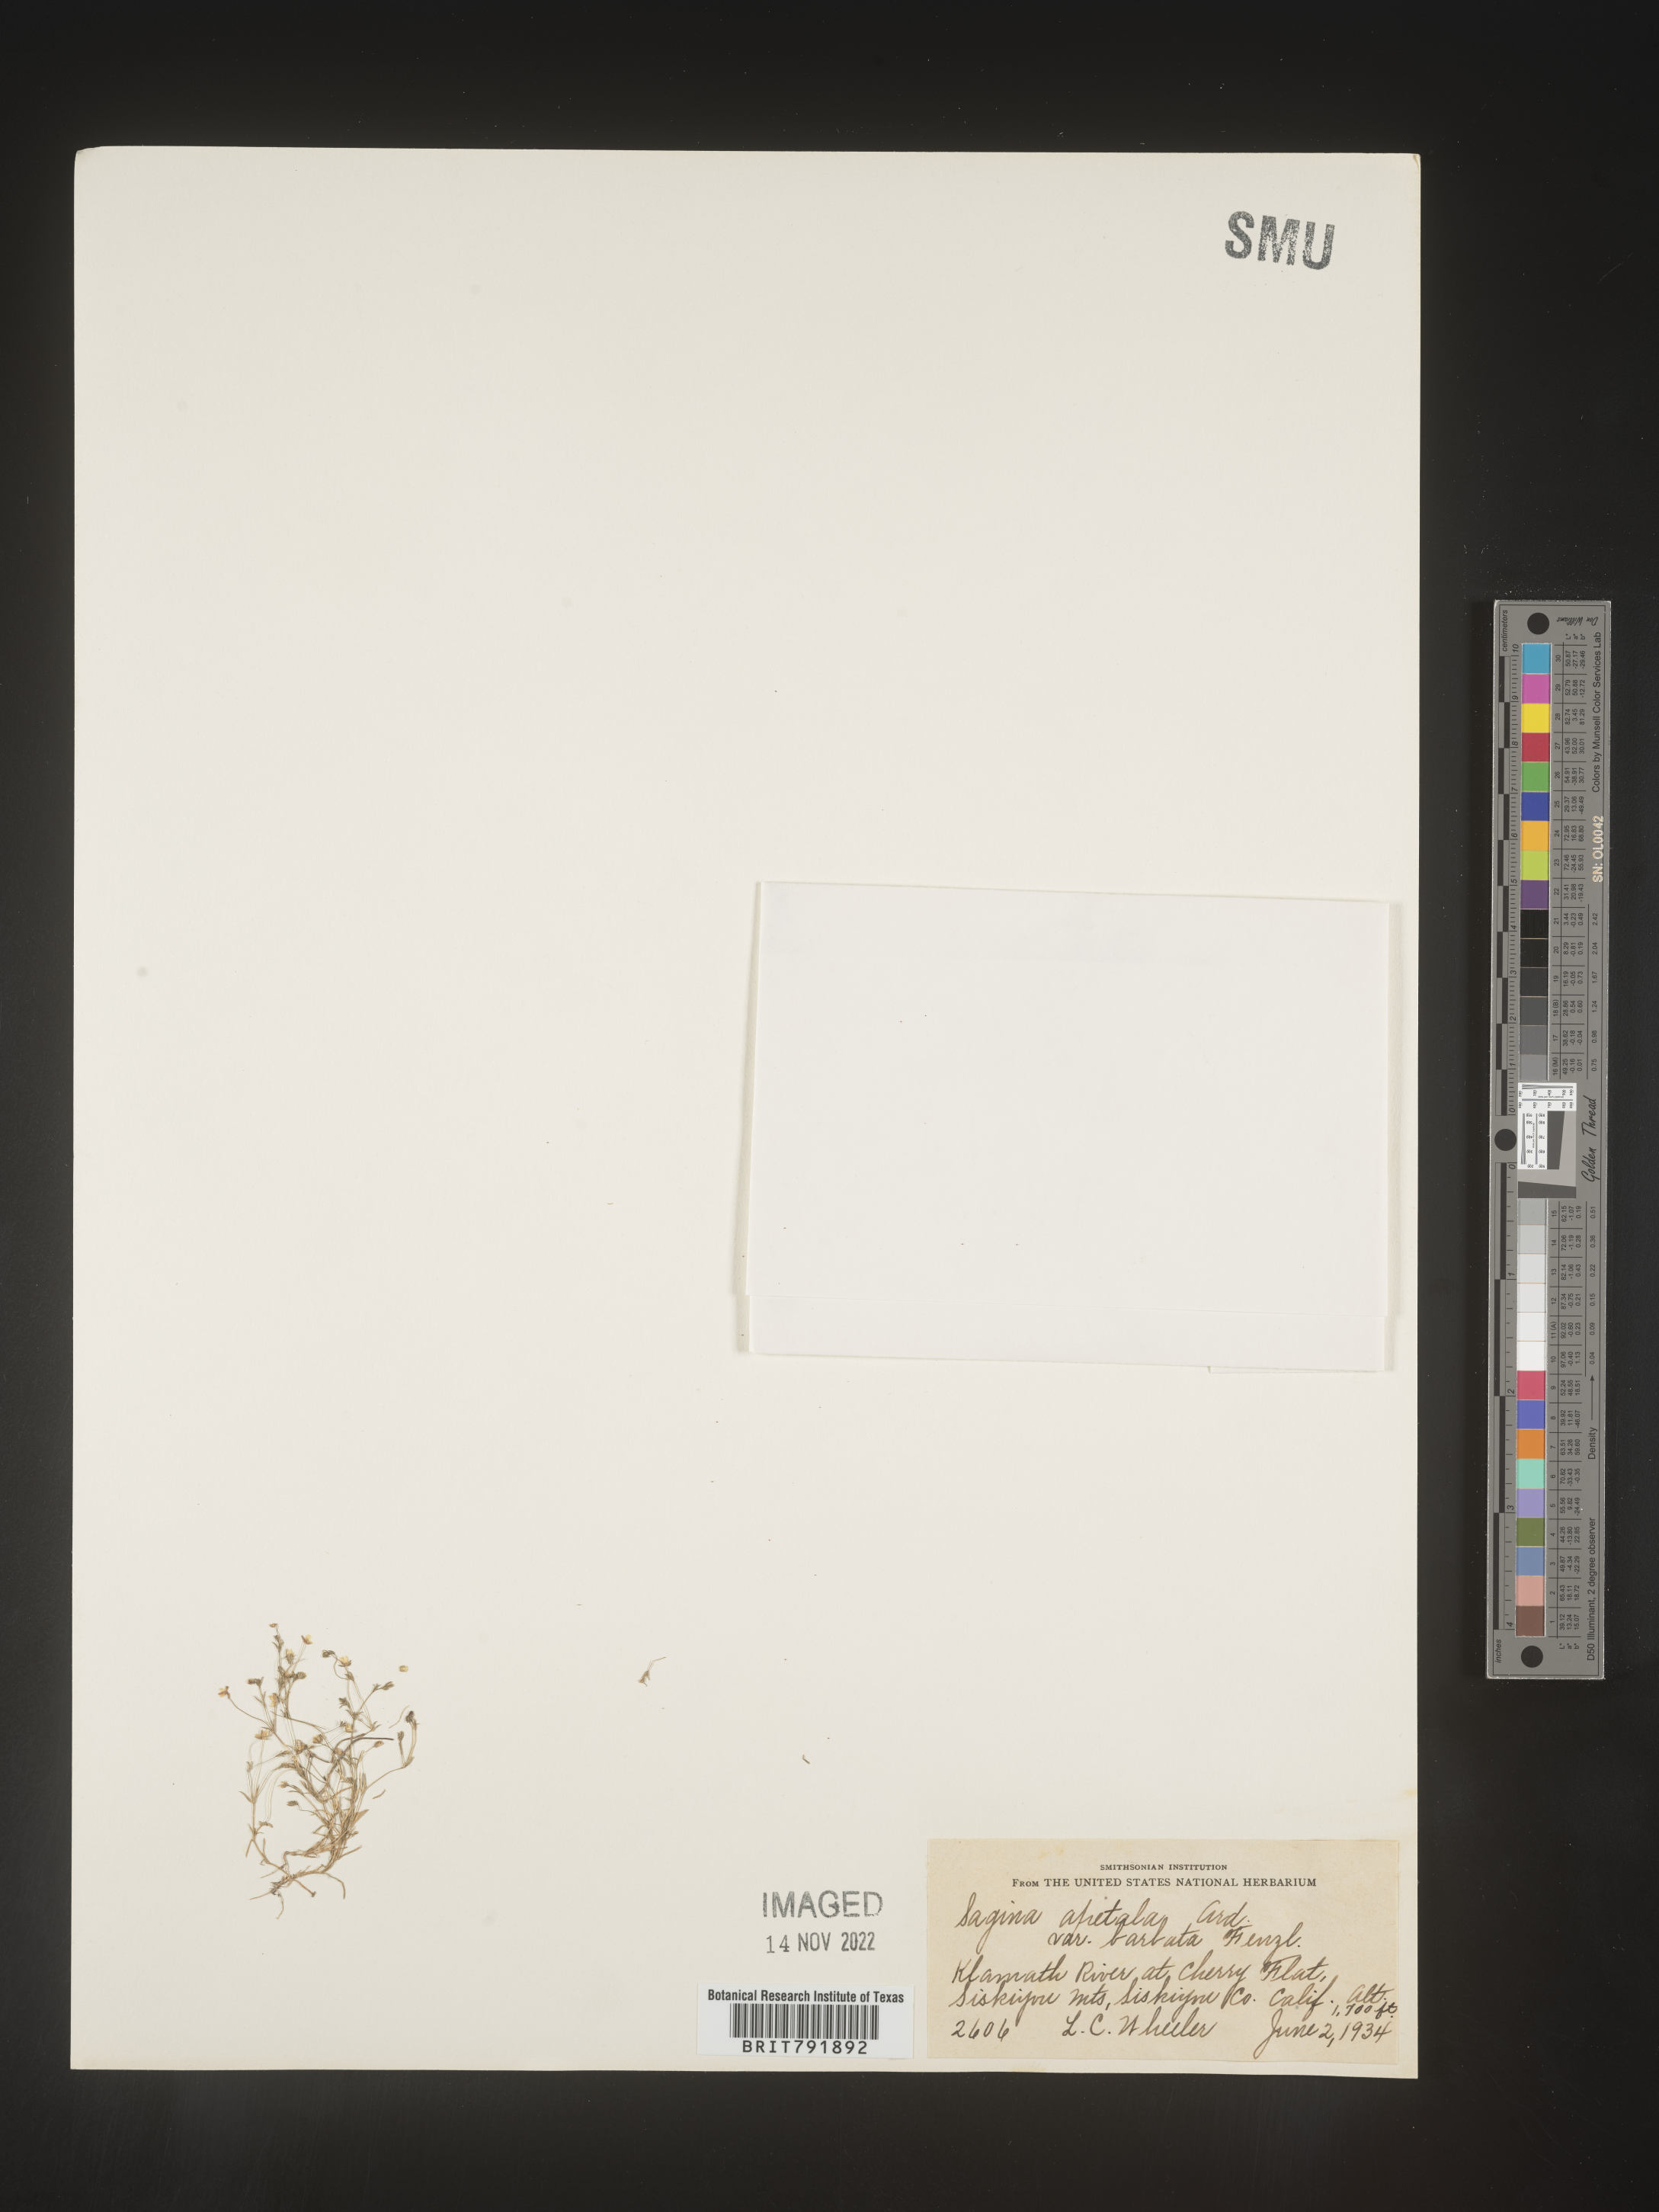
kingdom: Plantae
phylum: Tracheophyta
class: Magnoliopsida
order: Caryophyllales
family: Caryophyllaceae
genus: Sagina
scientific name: Sagina
